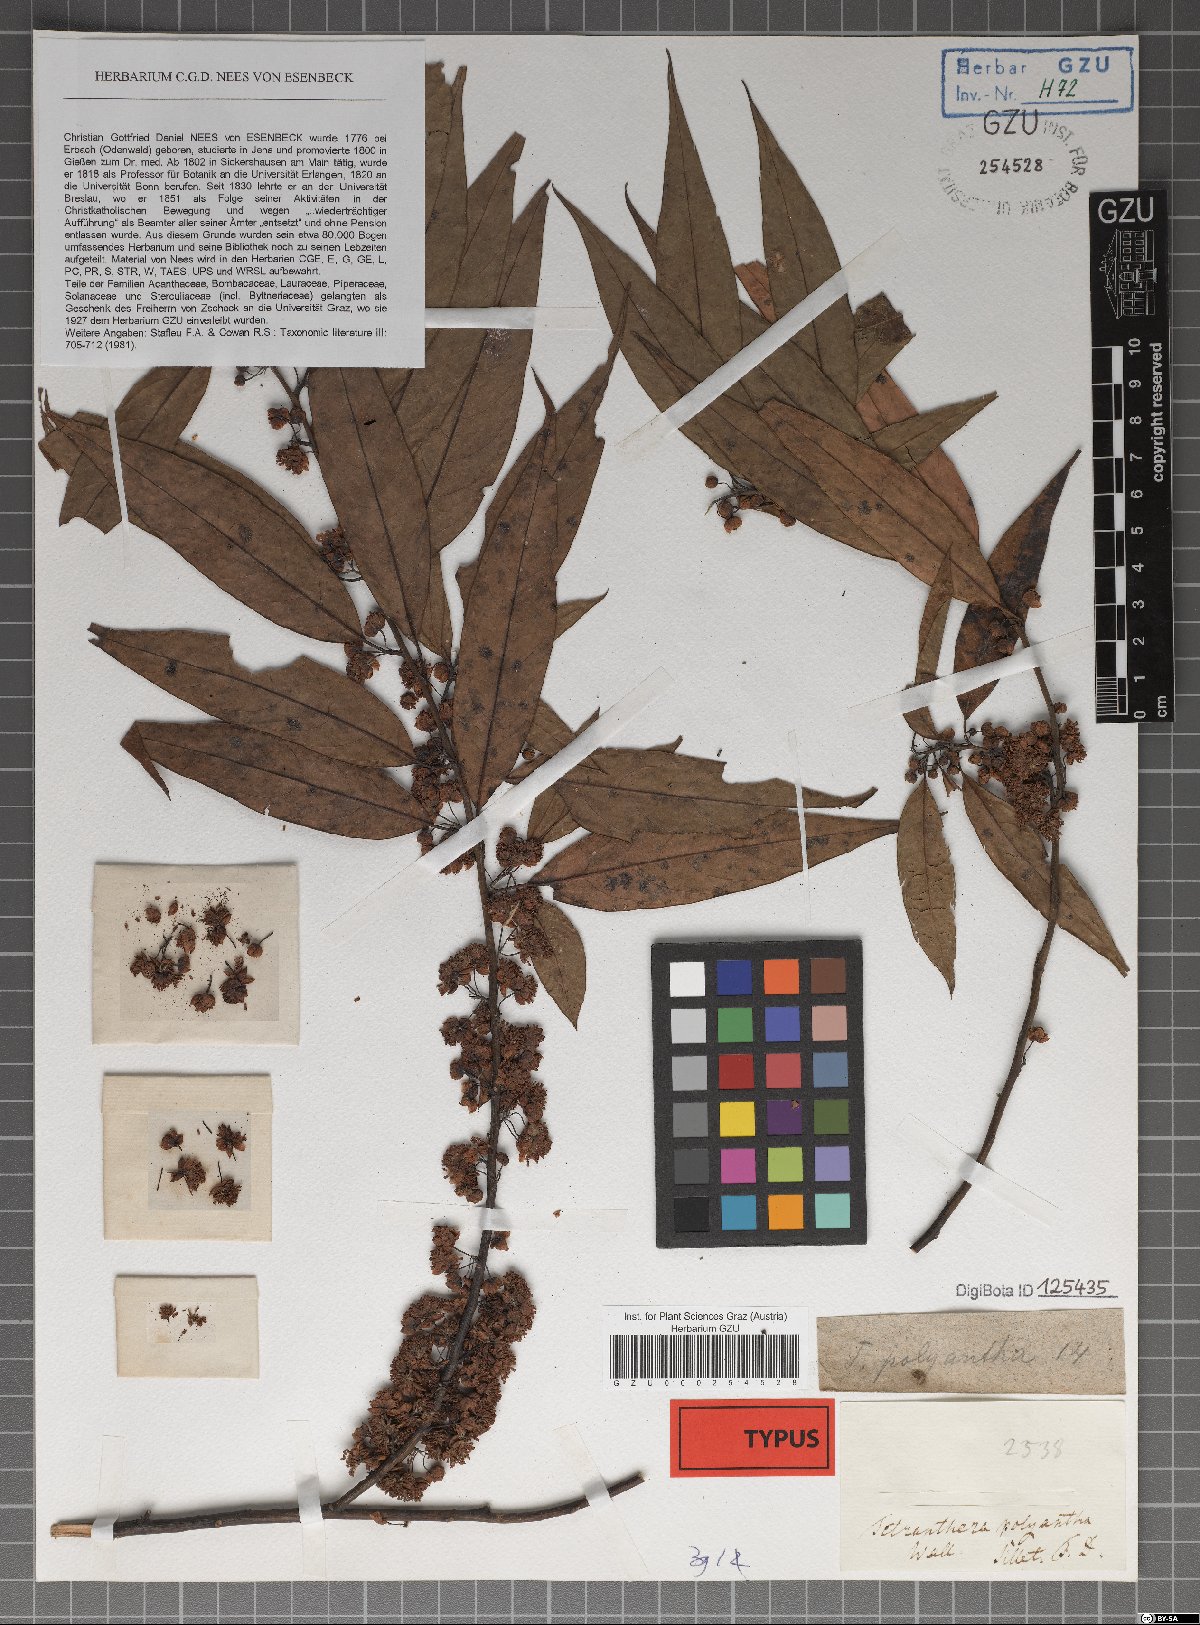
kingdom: Plantae
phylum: Tracheophyta
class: Magnoliopsida
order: Laurales
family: Lauraceae
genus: Litsea
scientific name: Litsea cubeba
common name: Mountain-pepper
